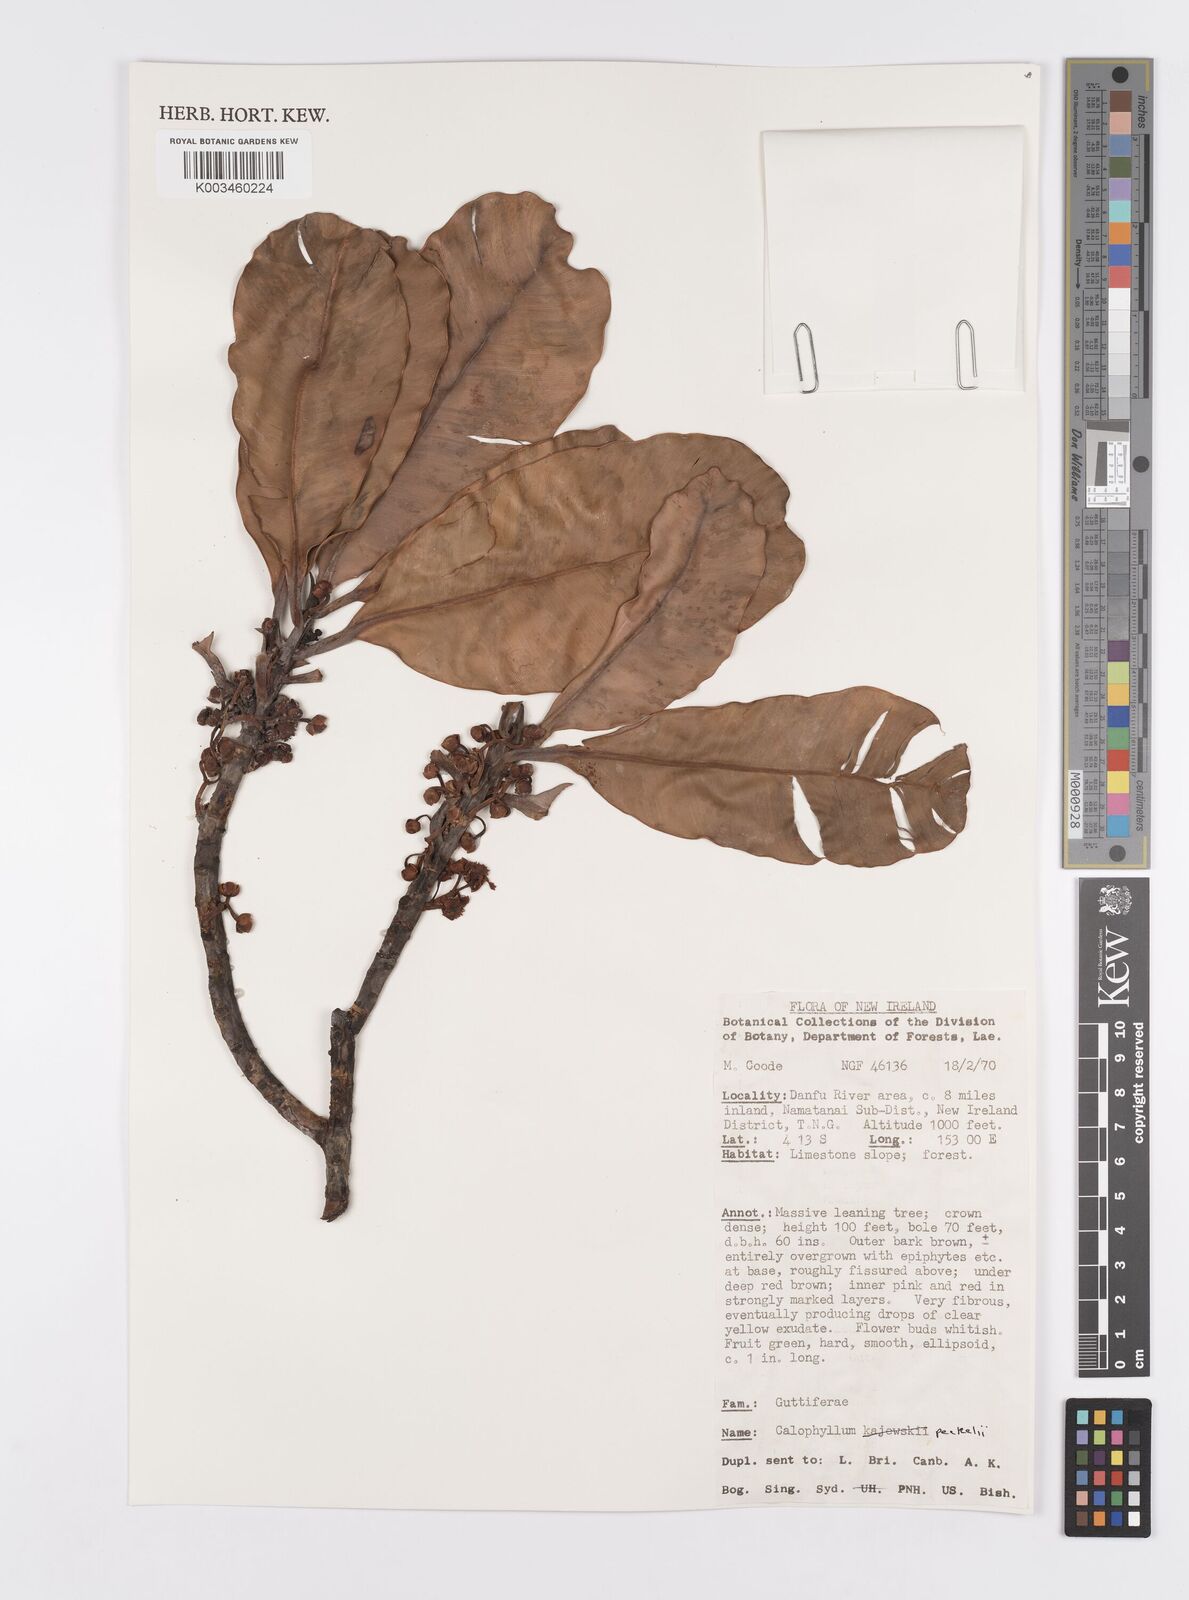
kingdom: Plantae
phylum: Tracheophyta
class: Magnoliopsida
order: Malpighiales
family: Calophyllaceae
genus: Calophyllum
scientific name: Calophyllum peekelii
